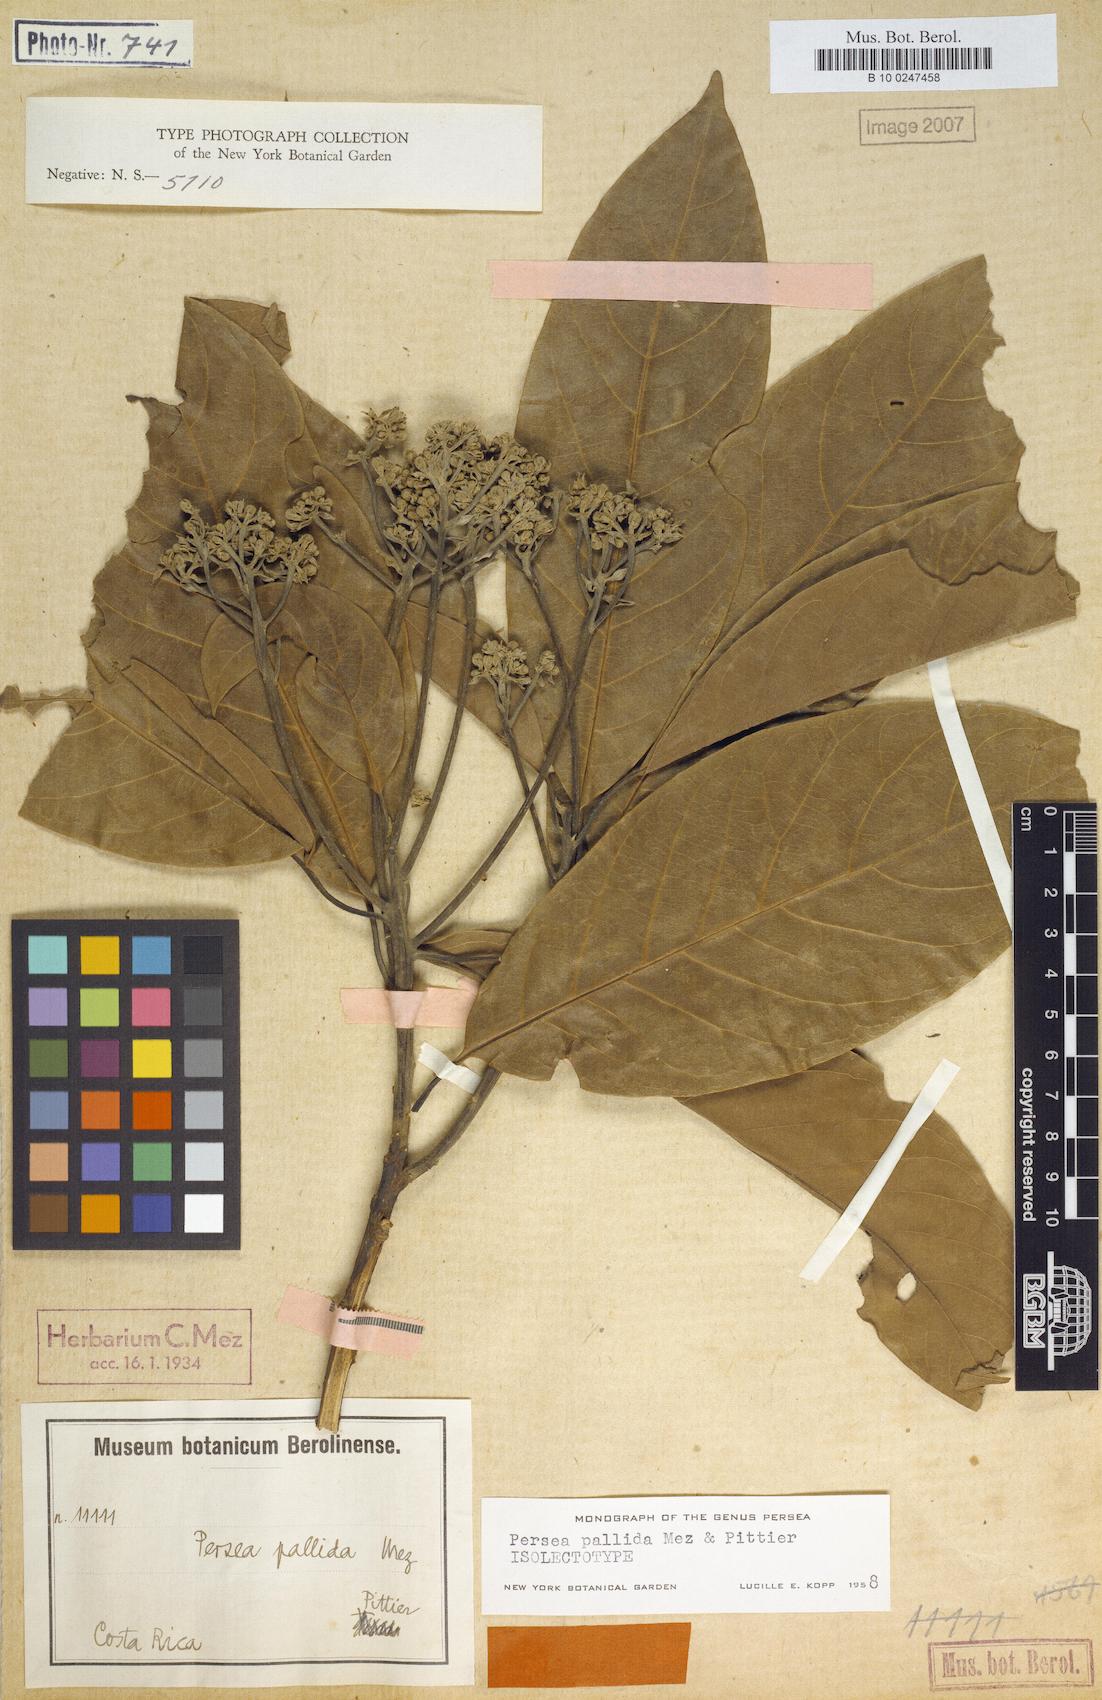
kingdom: Plantae
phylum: Tracheophyta
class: Magnoliopsida
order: Laurales
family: Lauraceae
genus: Persea
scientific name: Persea albida
